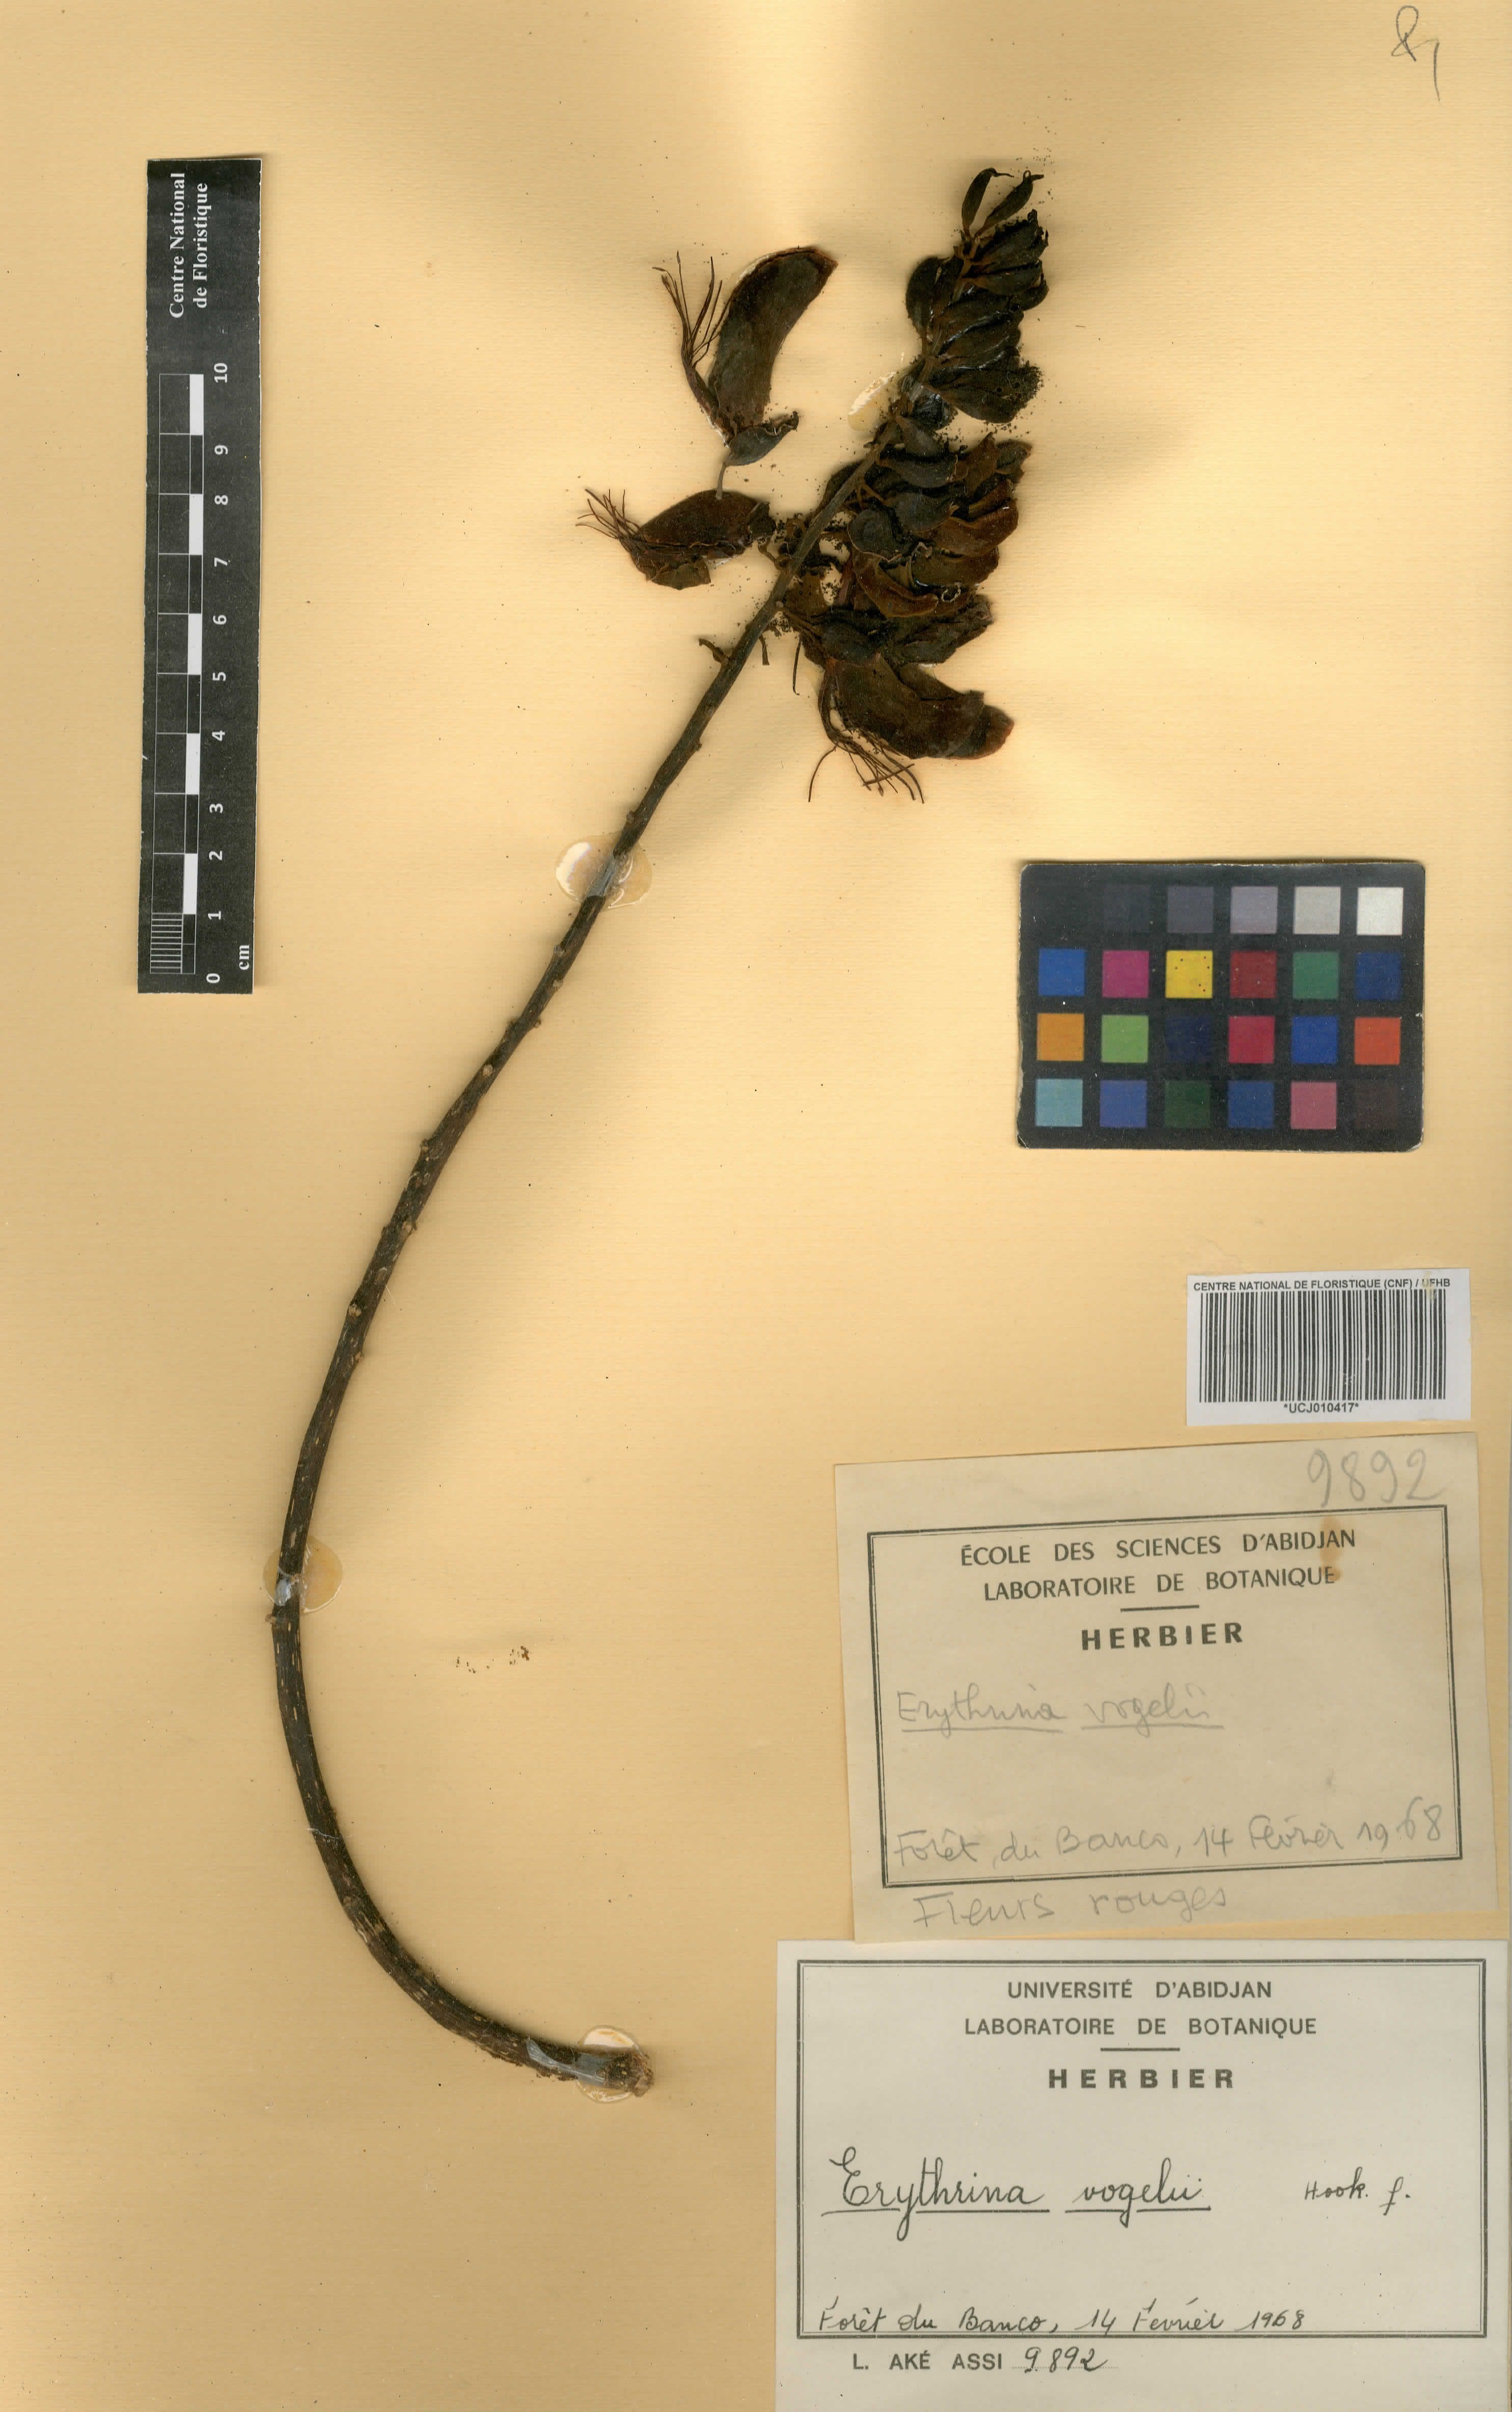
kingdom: Plantae
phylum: Tracheophyta
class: Magnoliopsida
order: Fabales
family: Fabaceae
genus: Erythrina
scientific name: Erythrina vogelii
